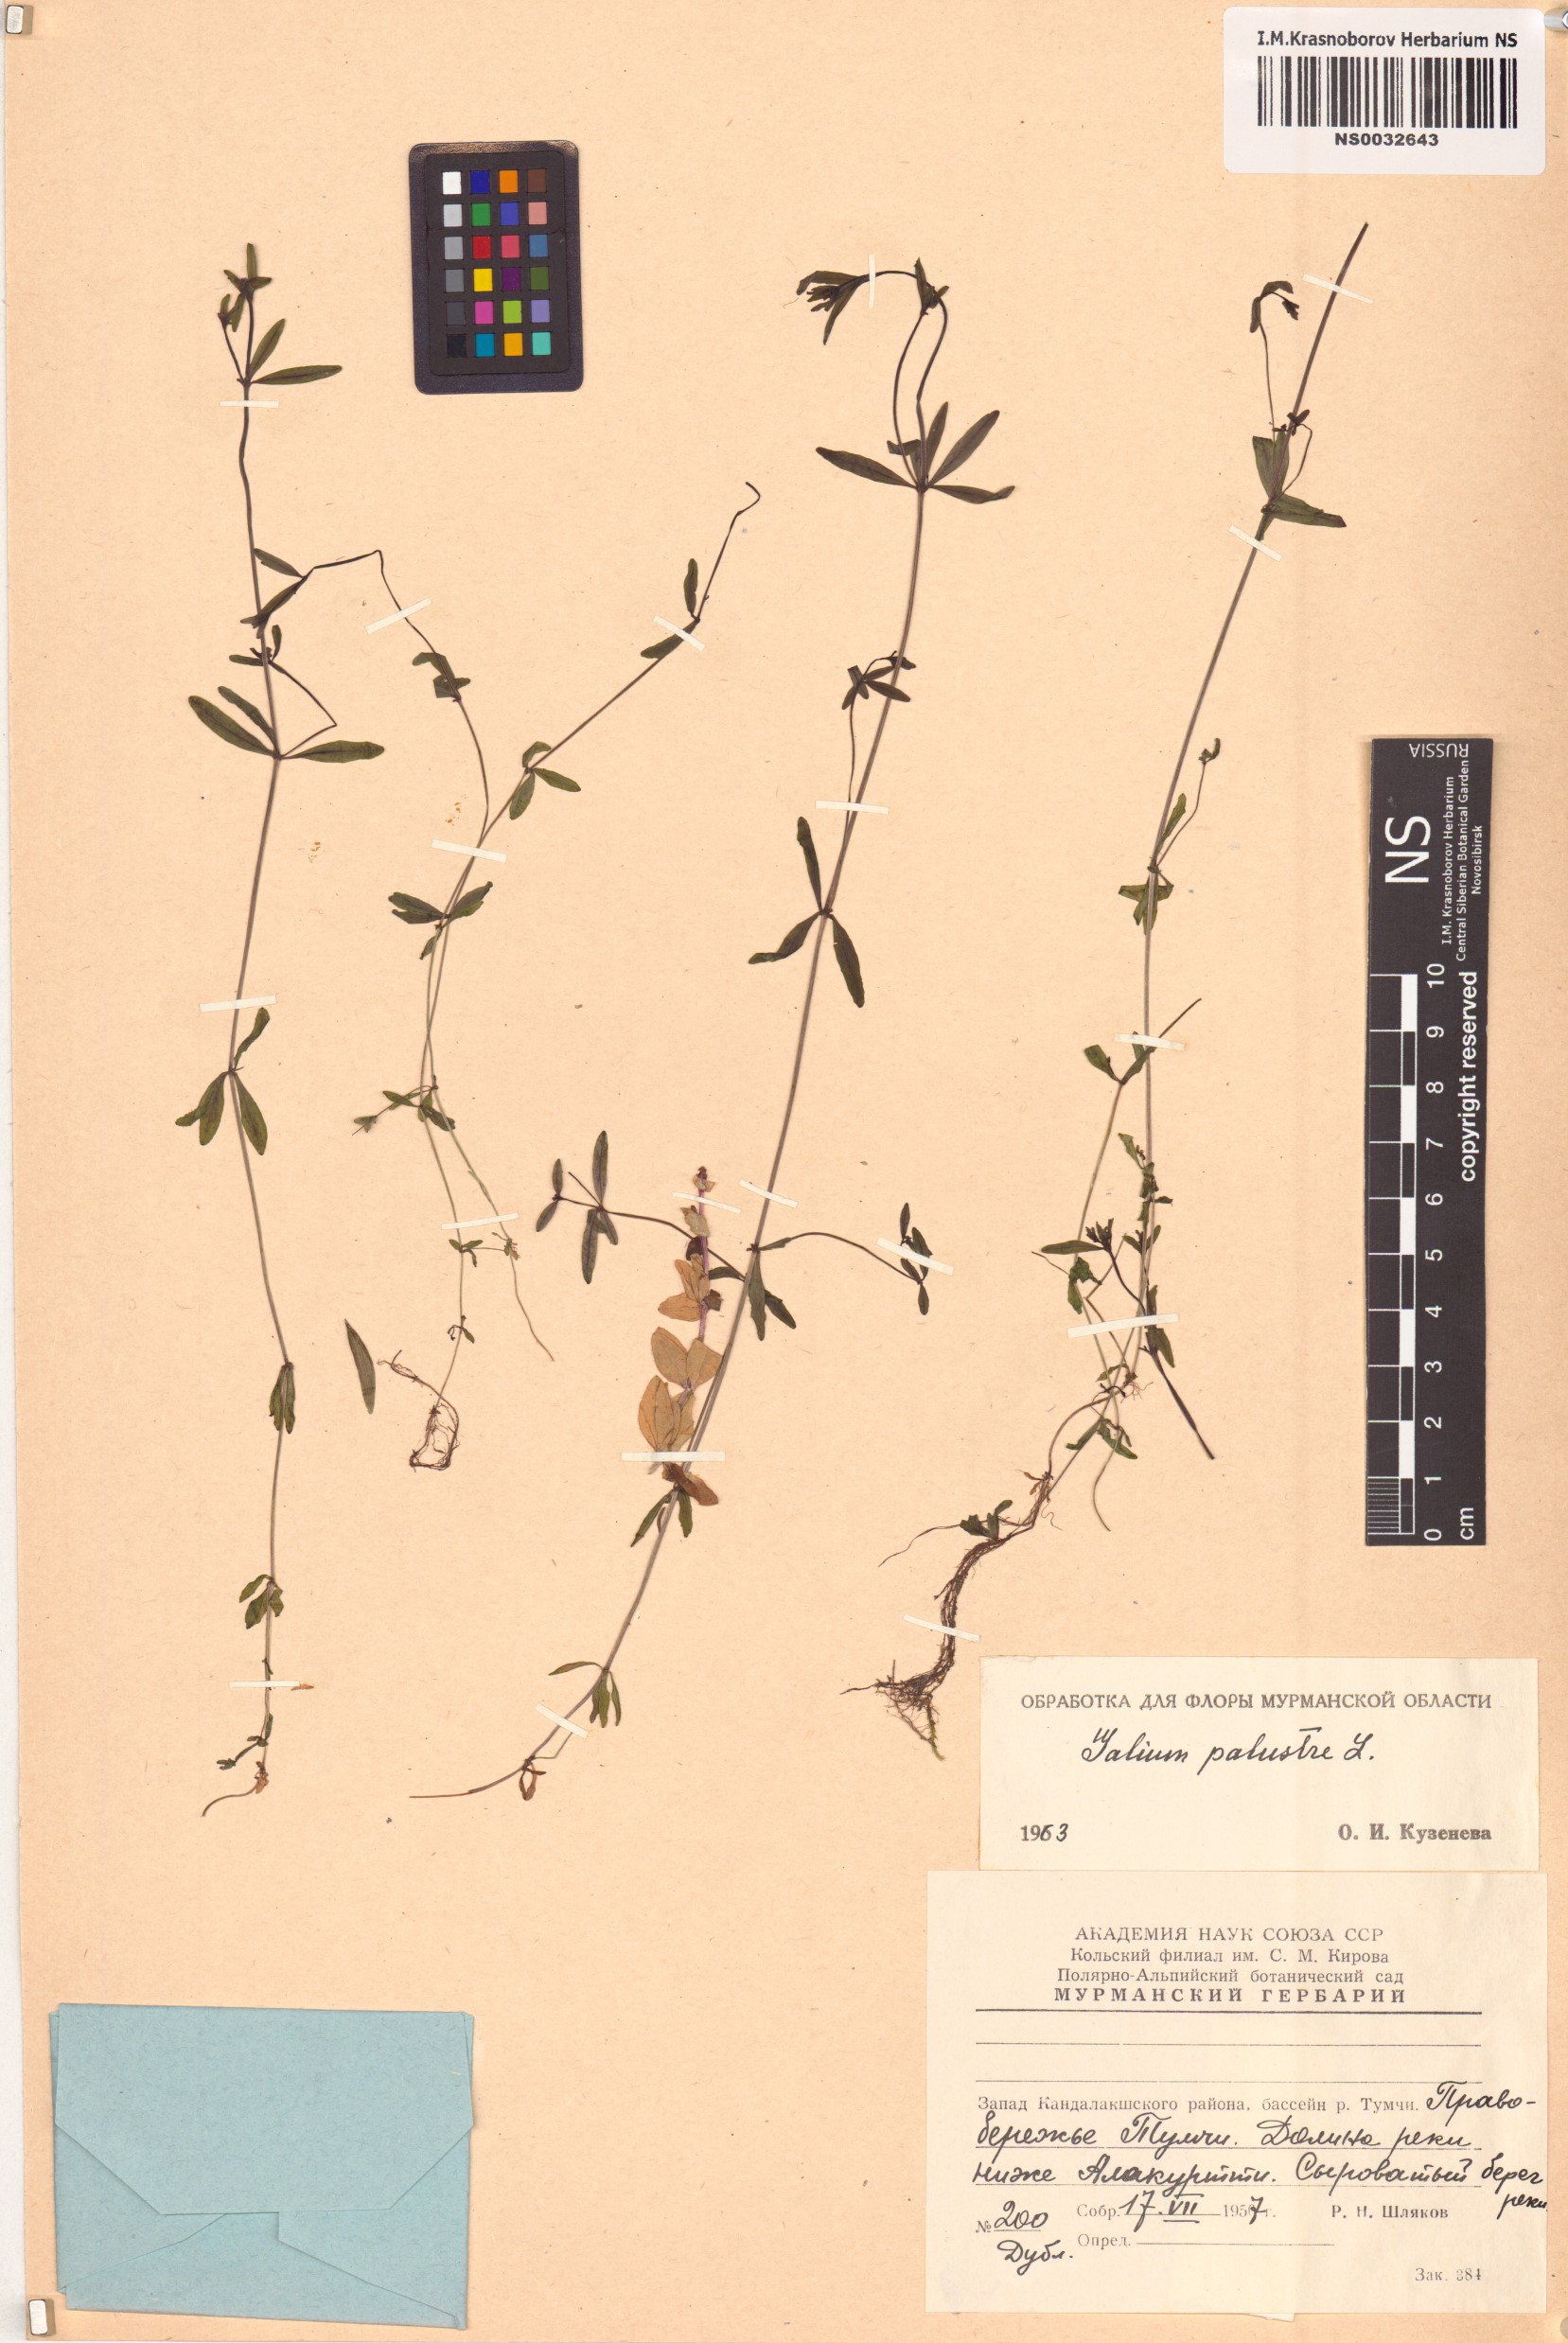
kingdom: Plantae
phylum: Tracheophyta
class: Magnoliopsida
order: Gentianales
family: Rubiaceae
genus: Galium
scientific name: Galium palustre
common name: Common marsh-bedstraw
